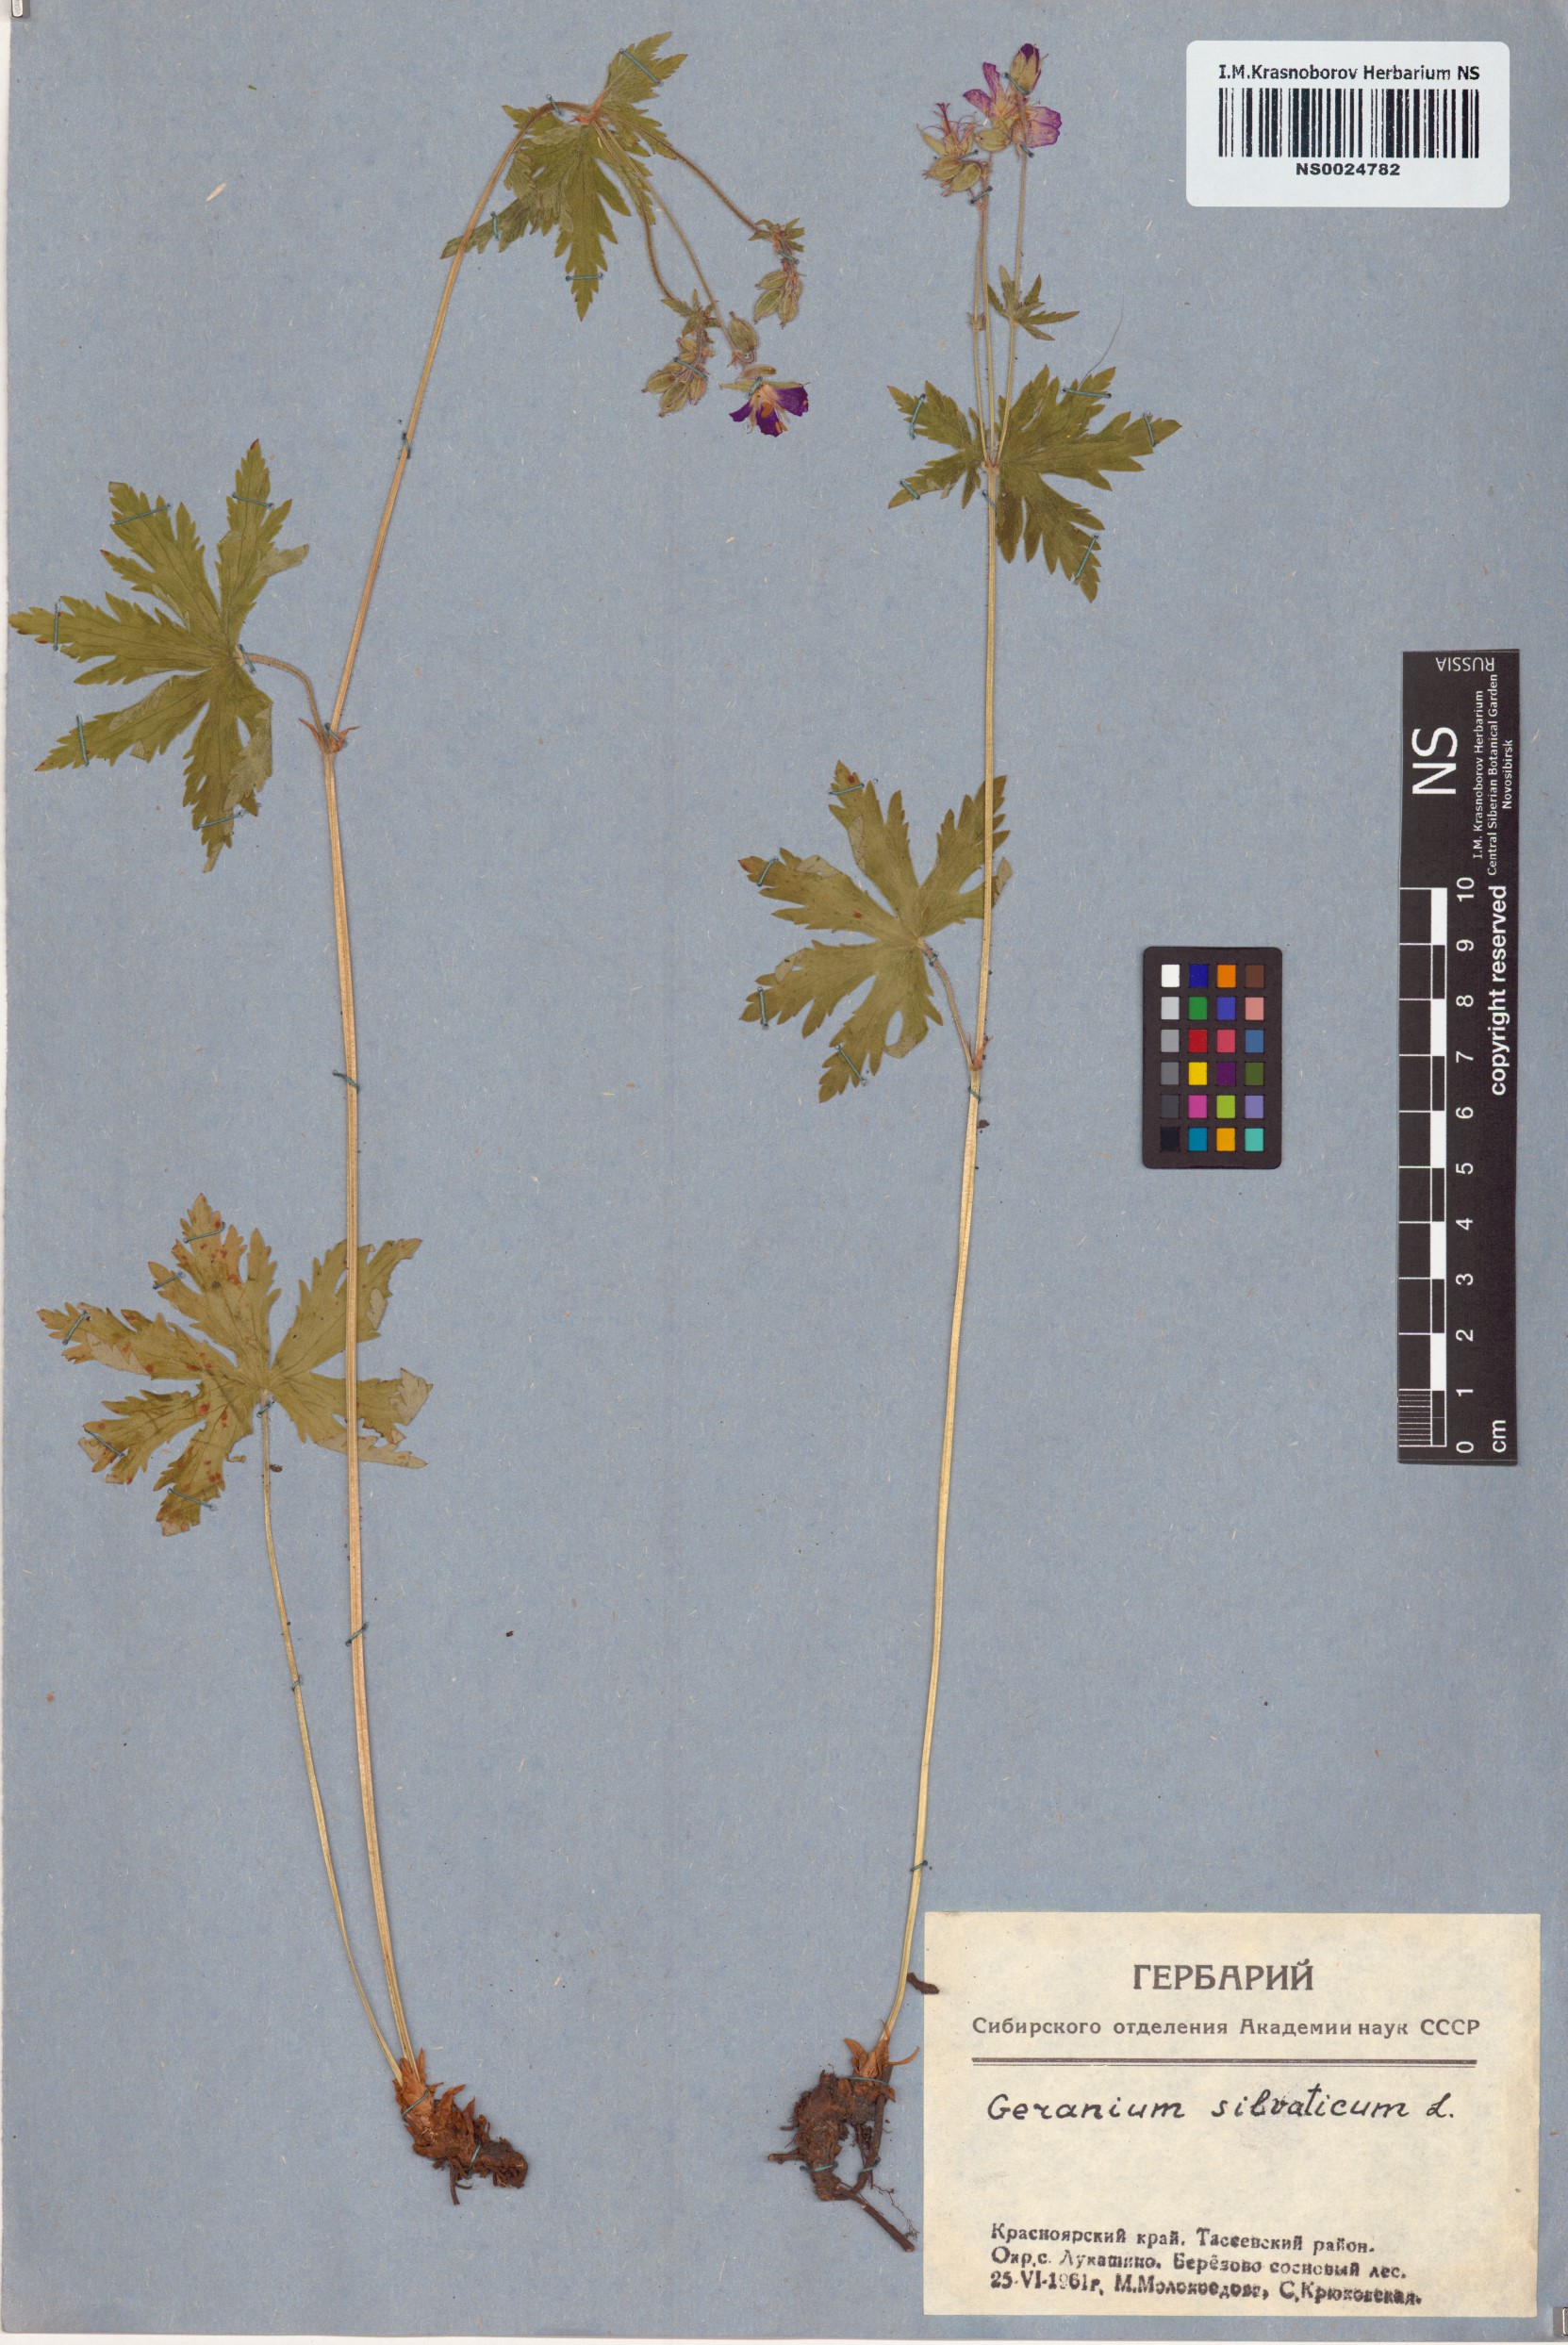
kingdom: Plantae
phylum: Tracheophyta
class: Magnoliopsida
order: Geraniales
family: Geraniaceae
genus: Geranium
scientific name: Geranium sylvaticum
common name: Wood crane's-bill
